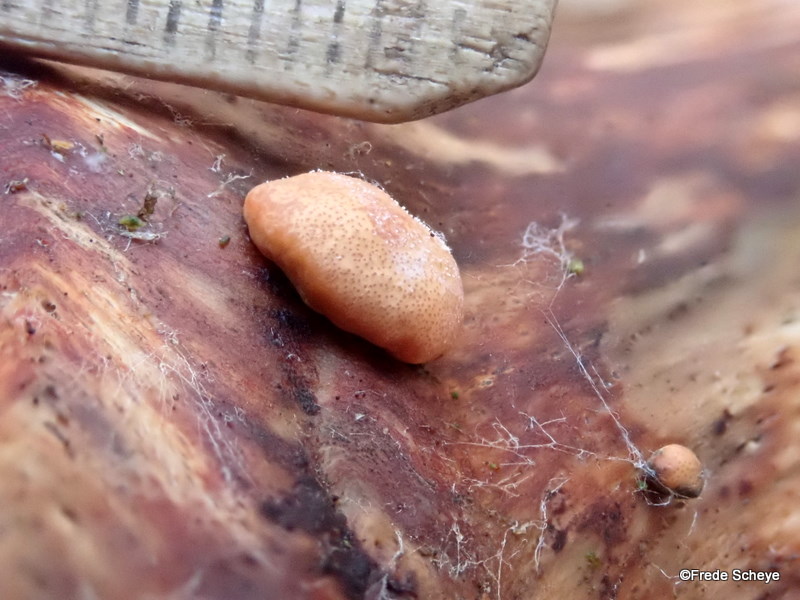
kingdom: Fungi
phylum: Ascomycota
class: Sordariomycetes
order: Hypocreales
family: Hypocreaceae
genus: Trichoderma
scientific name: Trichoderma europaeum
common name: rosabrun kødkerne
